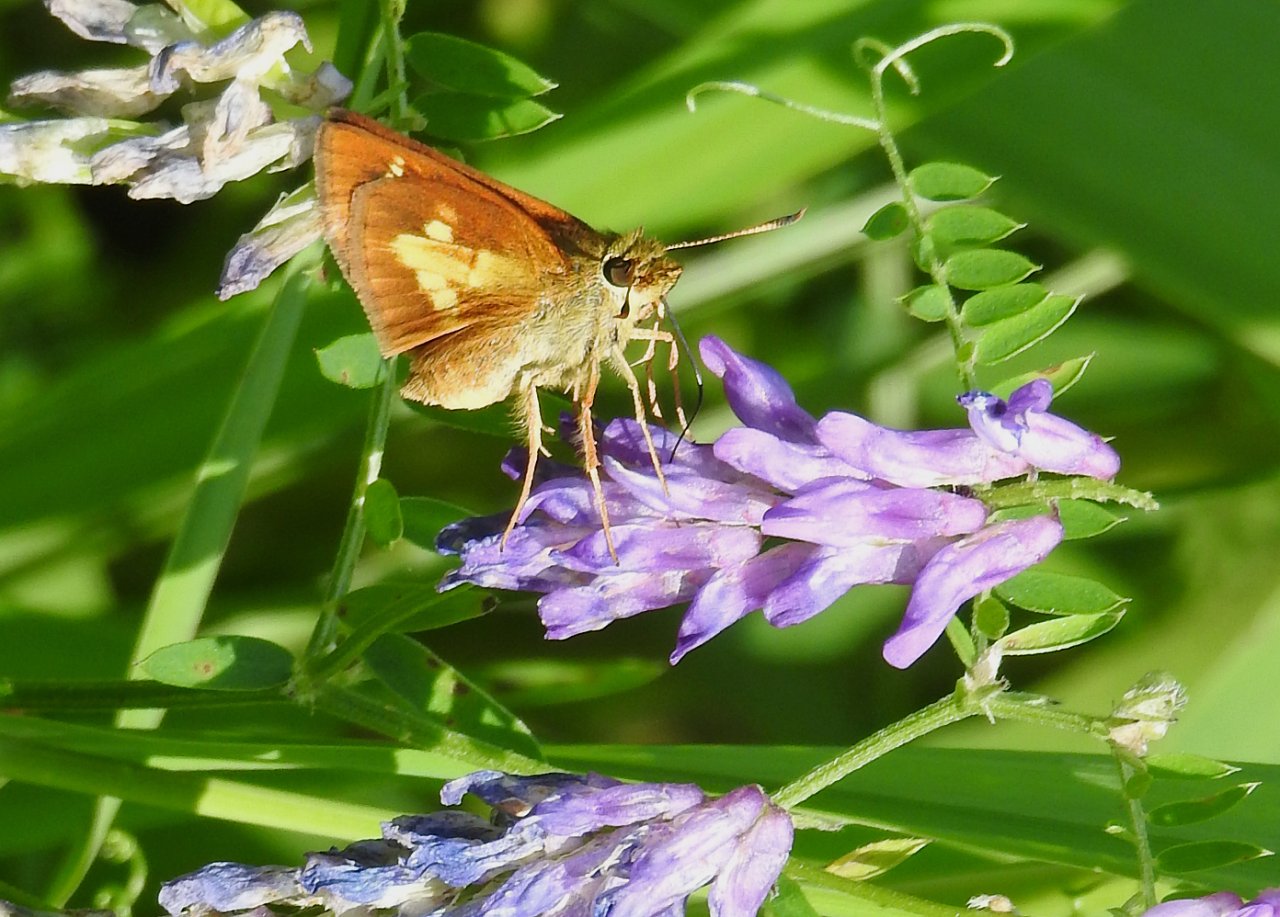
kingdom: Animalia
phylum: Arthropoda
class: Insecta
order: Lepidoptera
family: Hesperiidae
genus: Poanes
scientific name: Poanes massasoit
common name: Mulberry Wing
